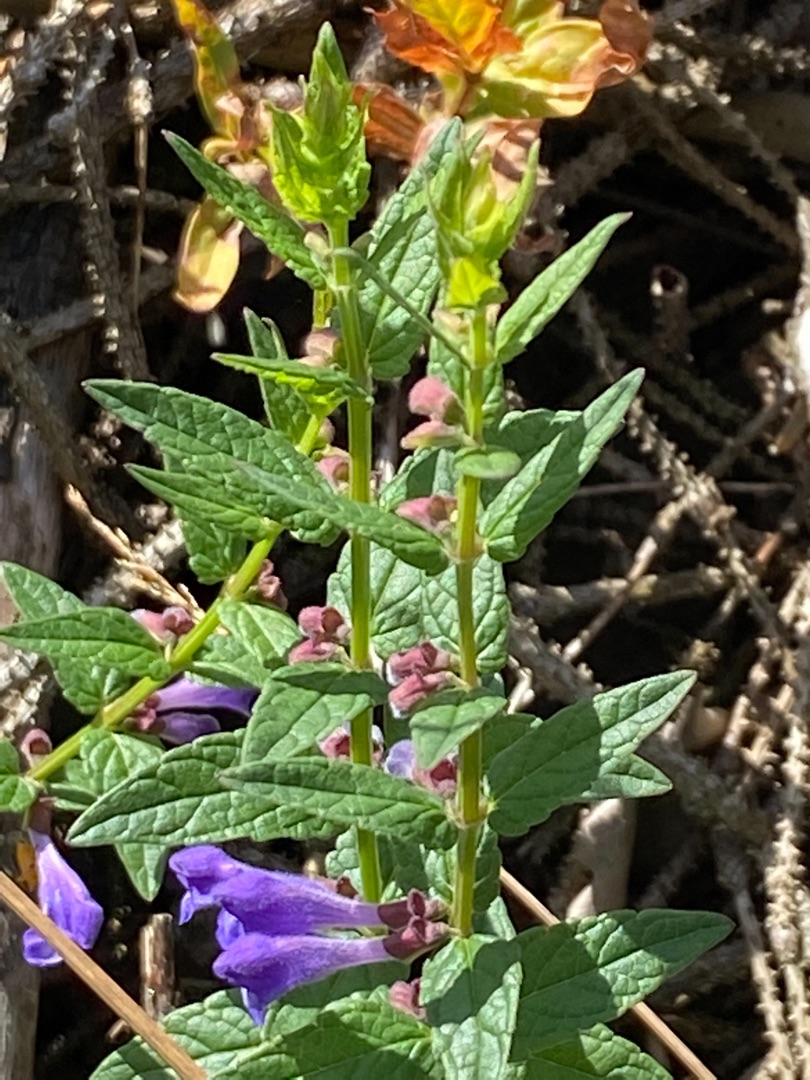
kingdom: Plantae
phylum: Tracheophyta
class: Magnoliopsida
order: Lamiales
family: Lamiaceae
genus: Scutellaria
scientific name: Scutellaria galericulata
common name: Almindelig skjolddrager
